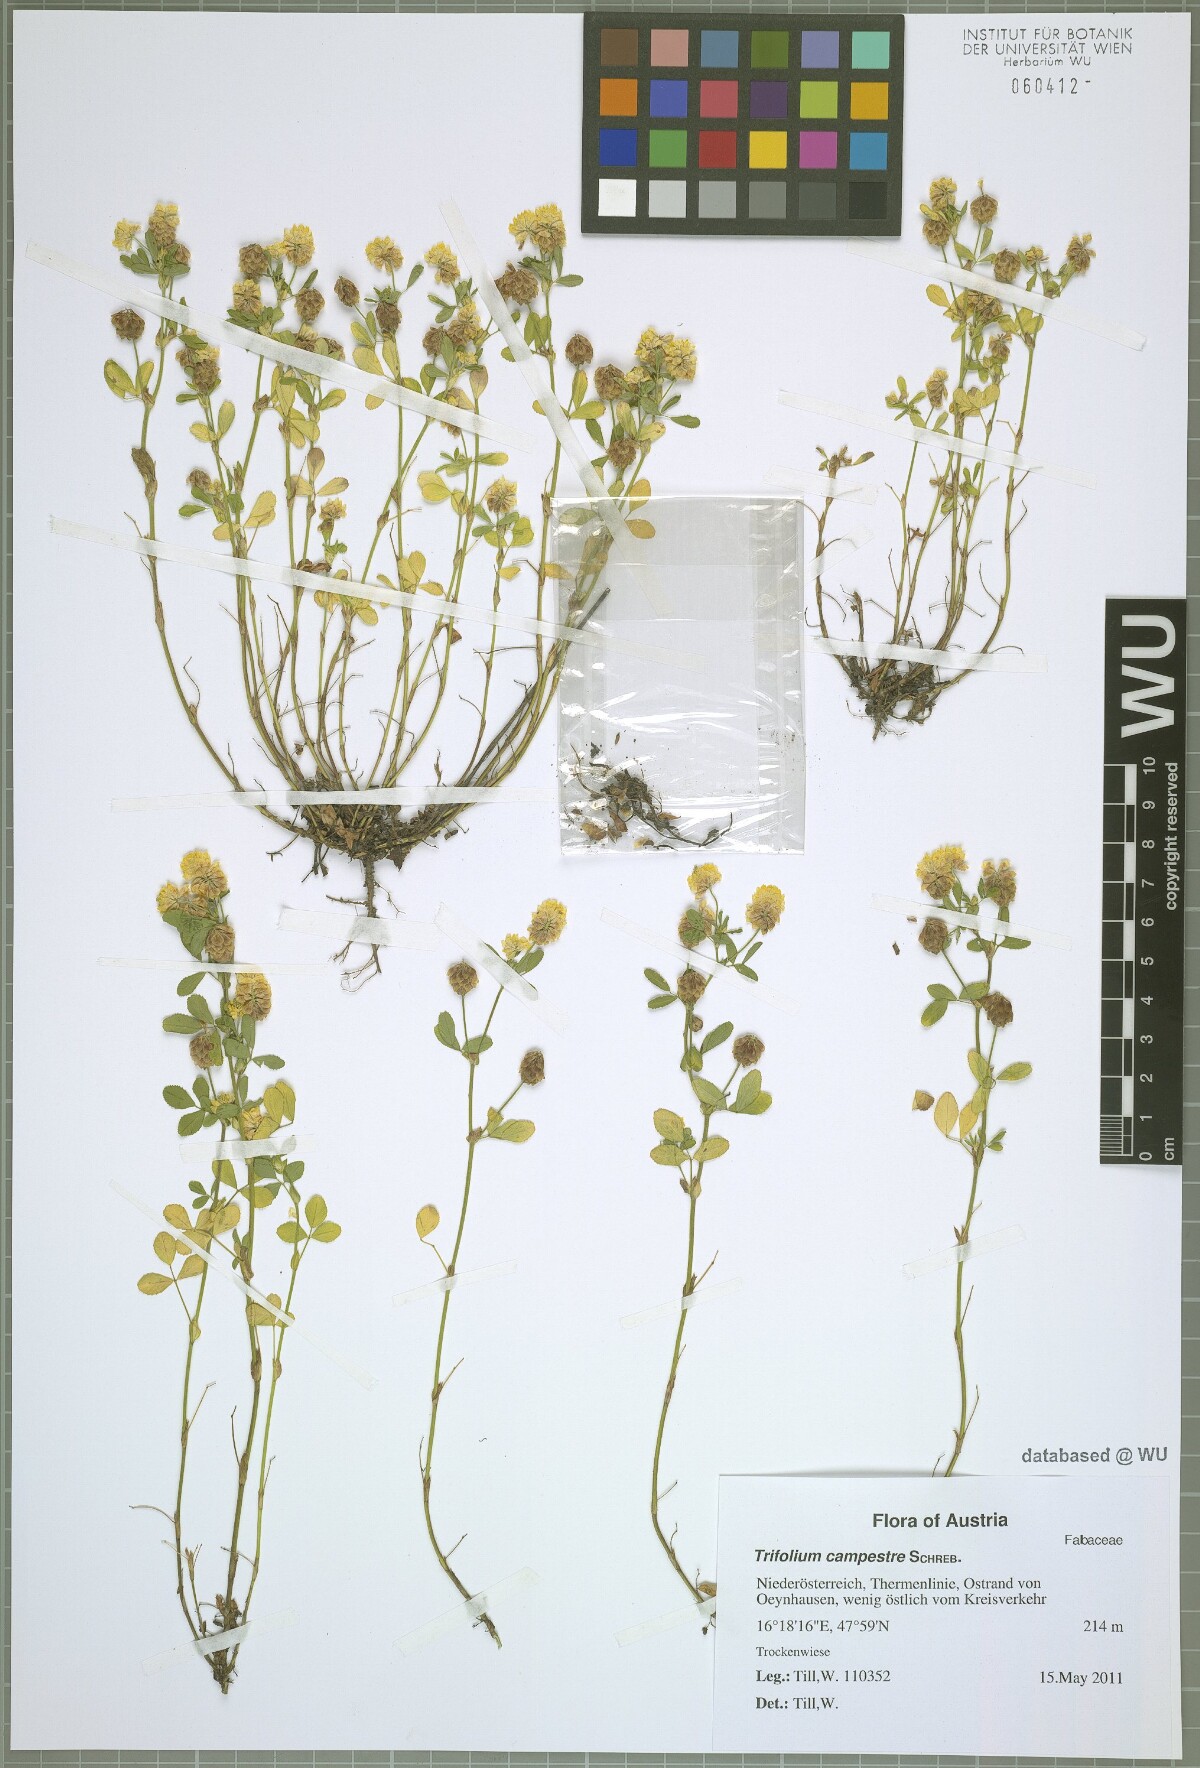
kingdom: Plantae
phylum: Tracheophyta
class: Magnoliopsida
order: Fabales
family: Fabaceae
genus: Trifolium
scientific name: Trifolium campestre
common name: Field clover
